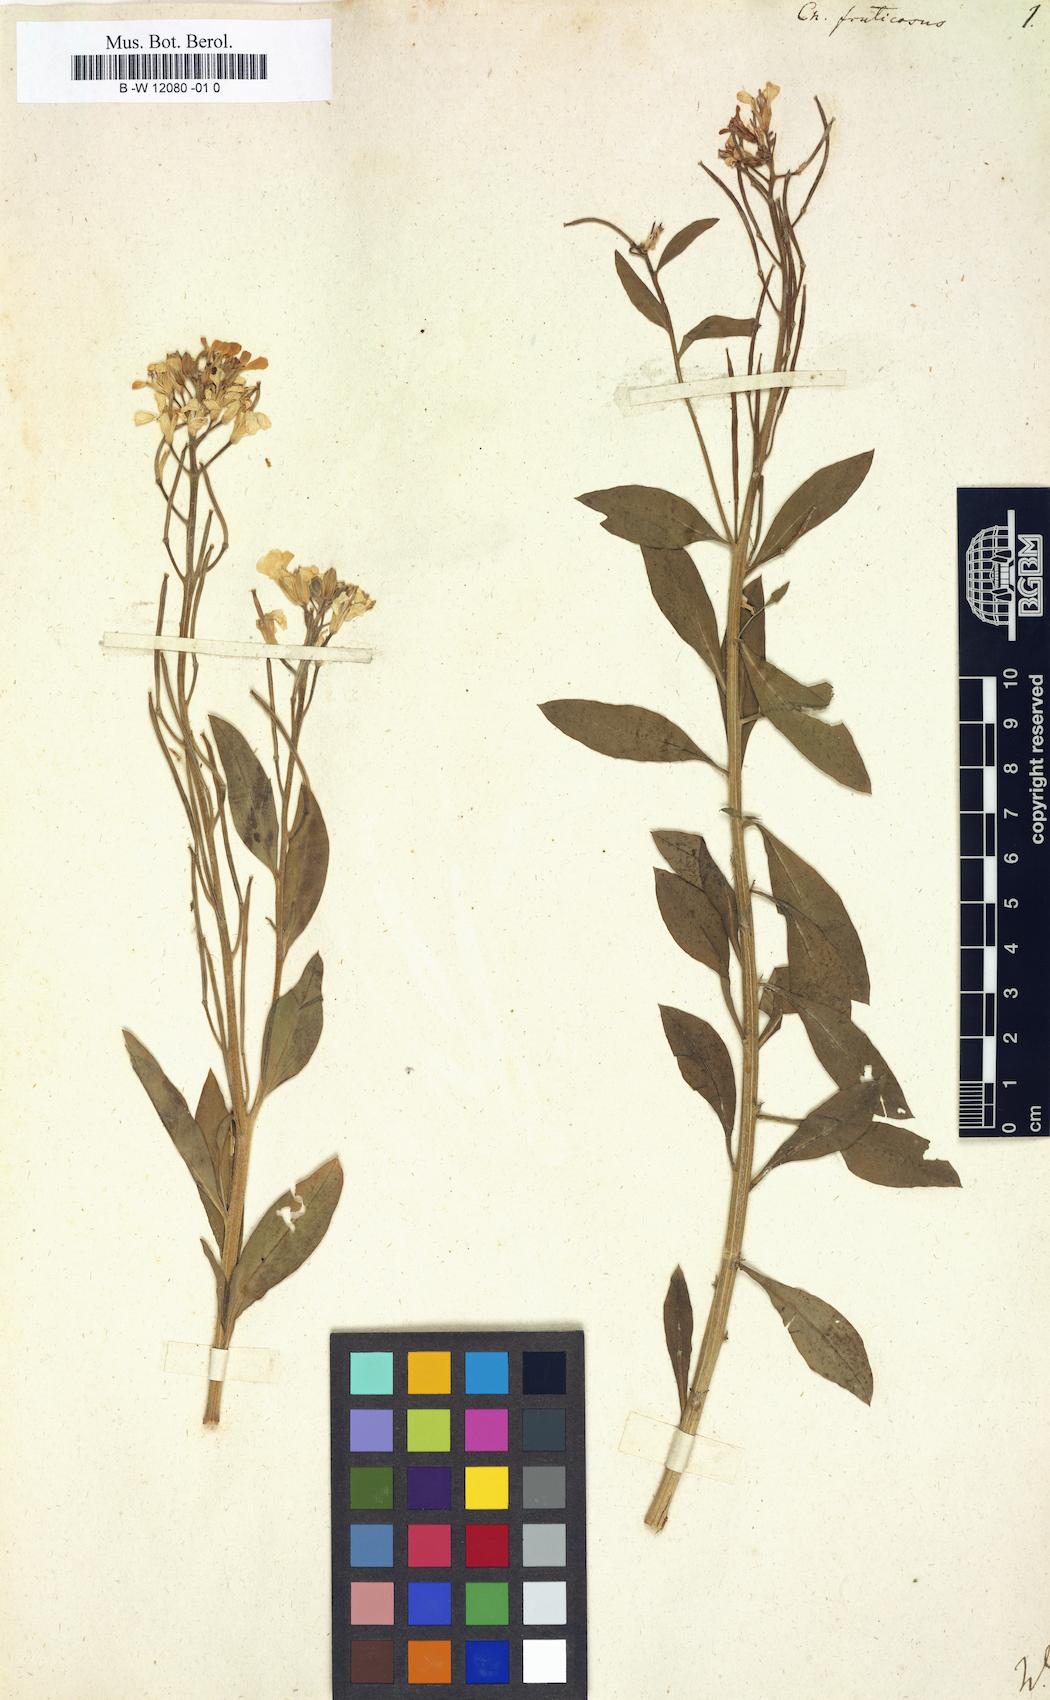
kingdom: Plantae
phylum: Tracheophyta
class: Magnoliopsida
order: Brassicales
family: Brassicaceae
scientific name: Brassicaceae
